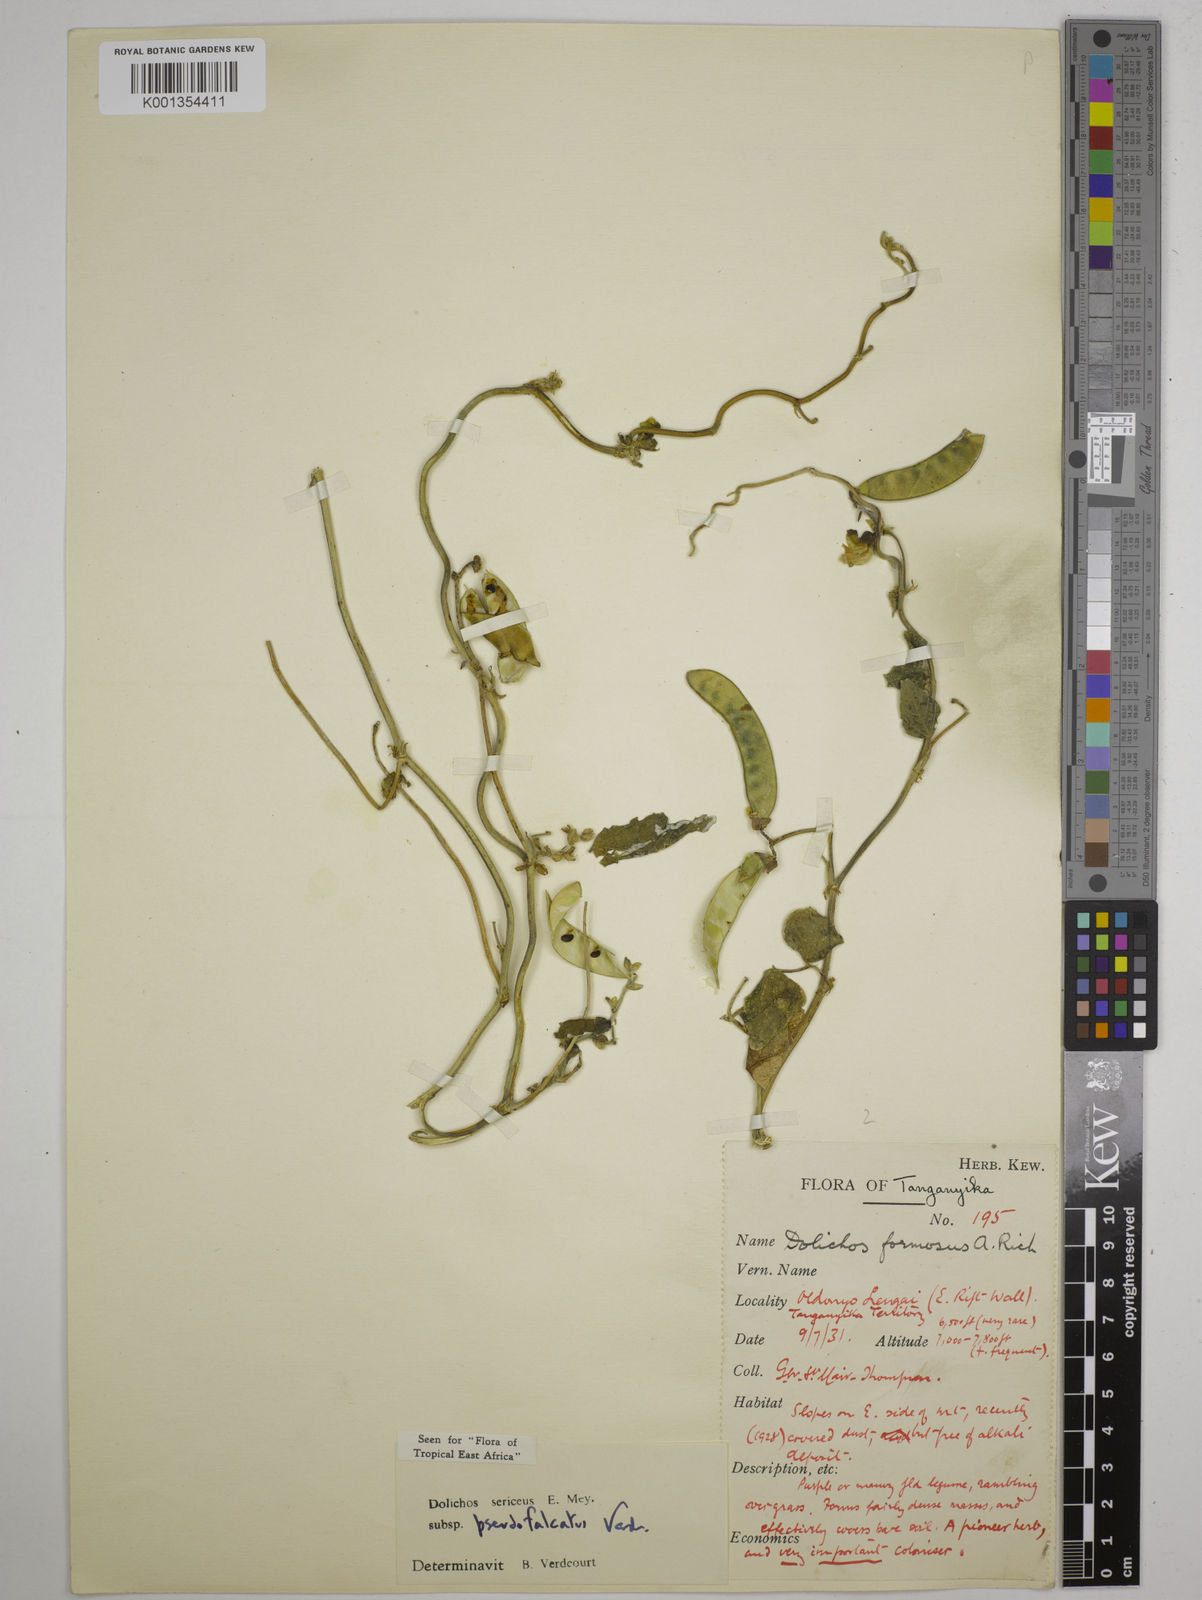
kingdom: Plantae
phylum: Tracheophyta
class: Magnoliopsida
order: Fabales
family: Fabaceae
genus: Dolichos
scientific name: Dolichos
